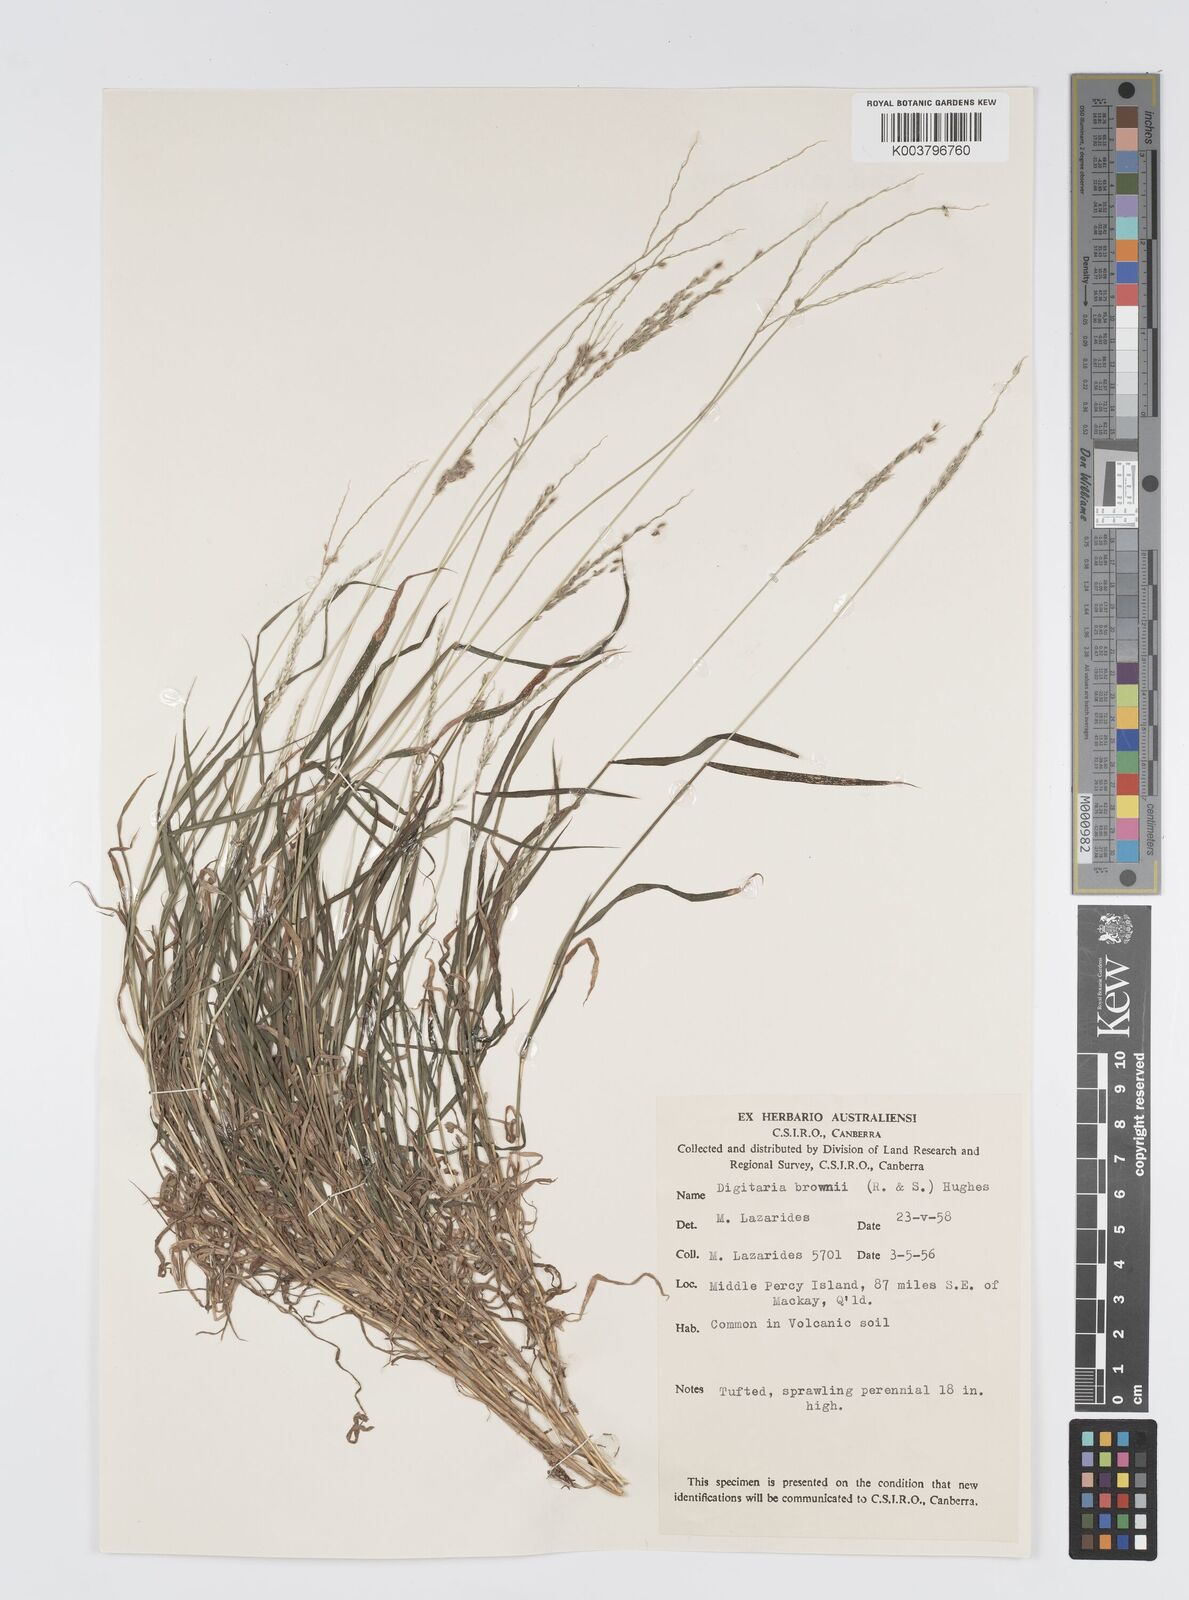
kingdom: Plantae
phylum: Tracheophyta
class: Liliopsida
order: Poales
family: Poaceae
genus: Digitaria
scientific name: Digitaria brownii
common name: Cotton grass
